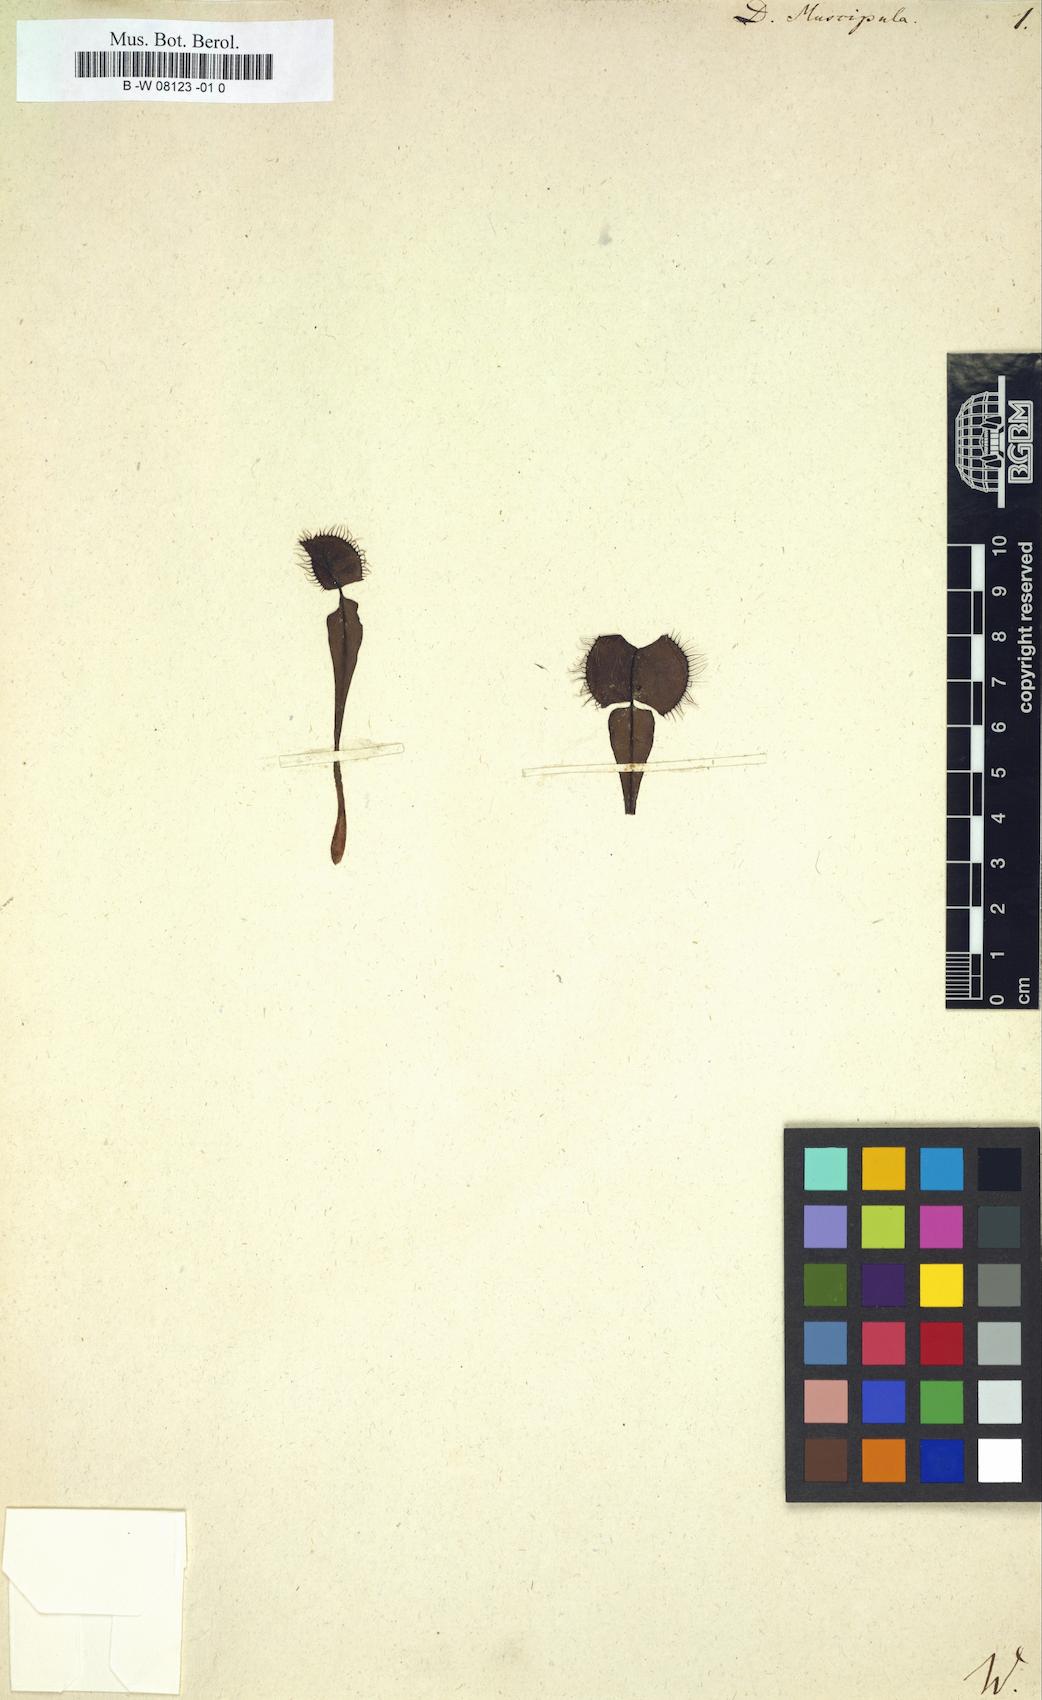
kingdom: Plantae
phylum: Tracheophyta
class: Magnoliopsida
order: Caryophyllales
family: Droseraceae
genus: Dionaea
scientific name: Dionaea muscipula
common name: Venus flytrap
